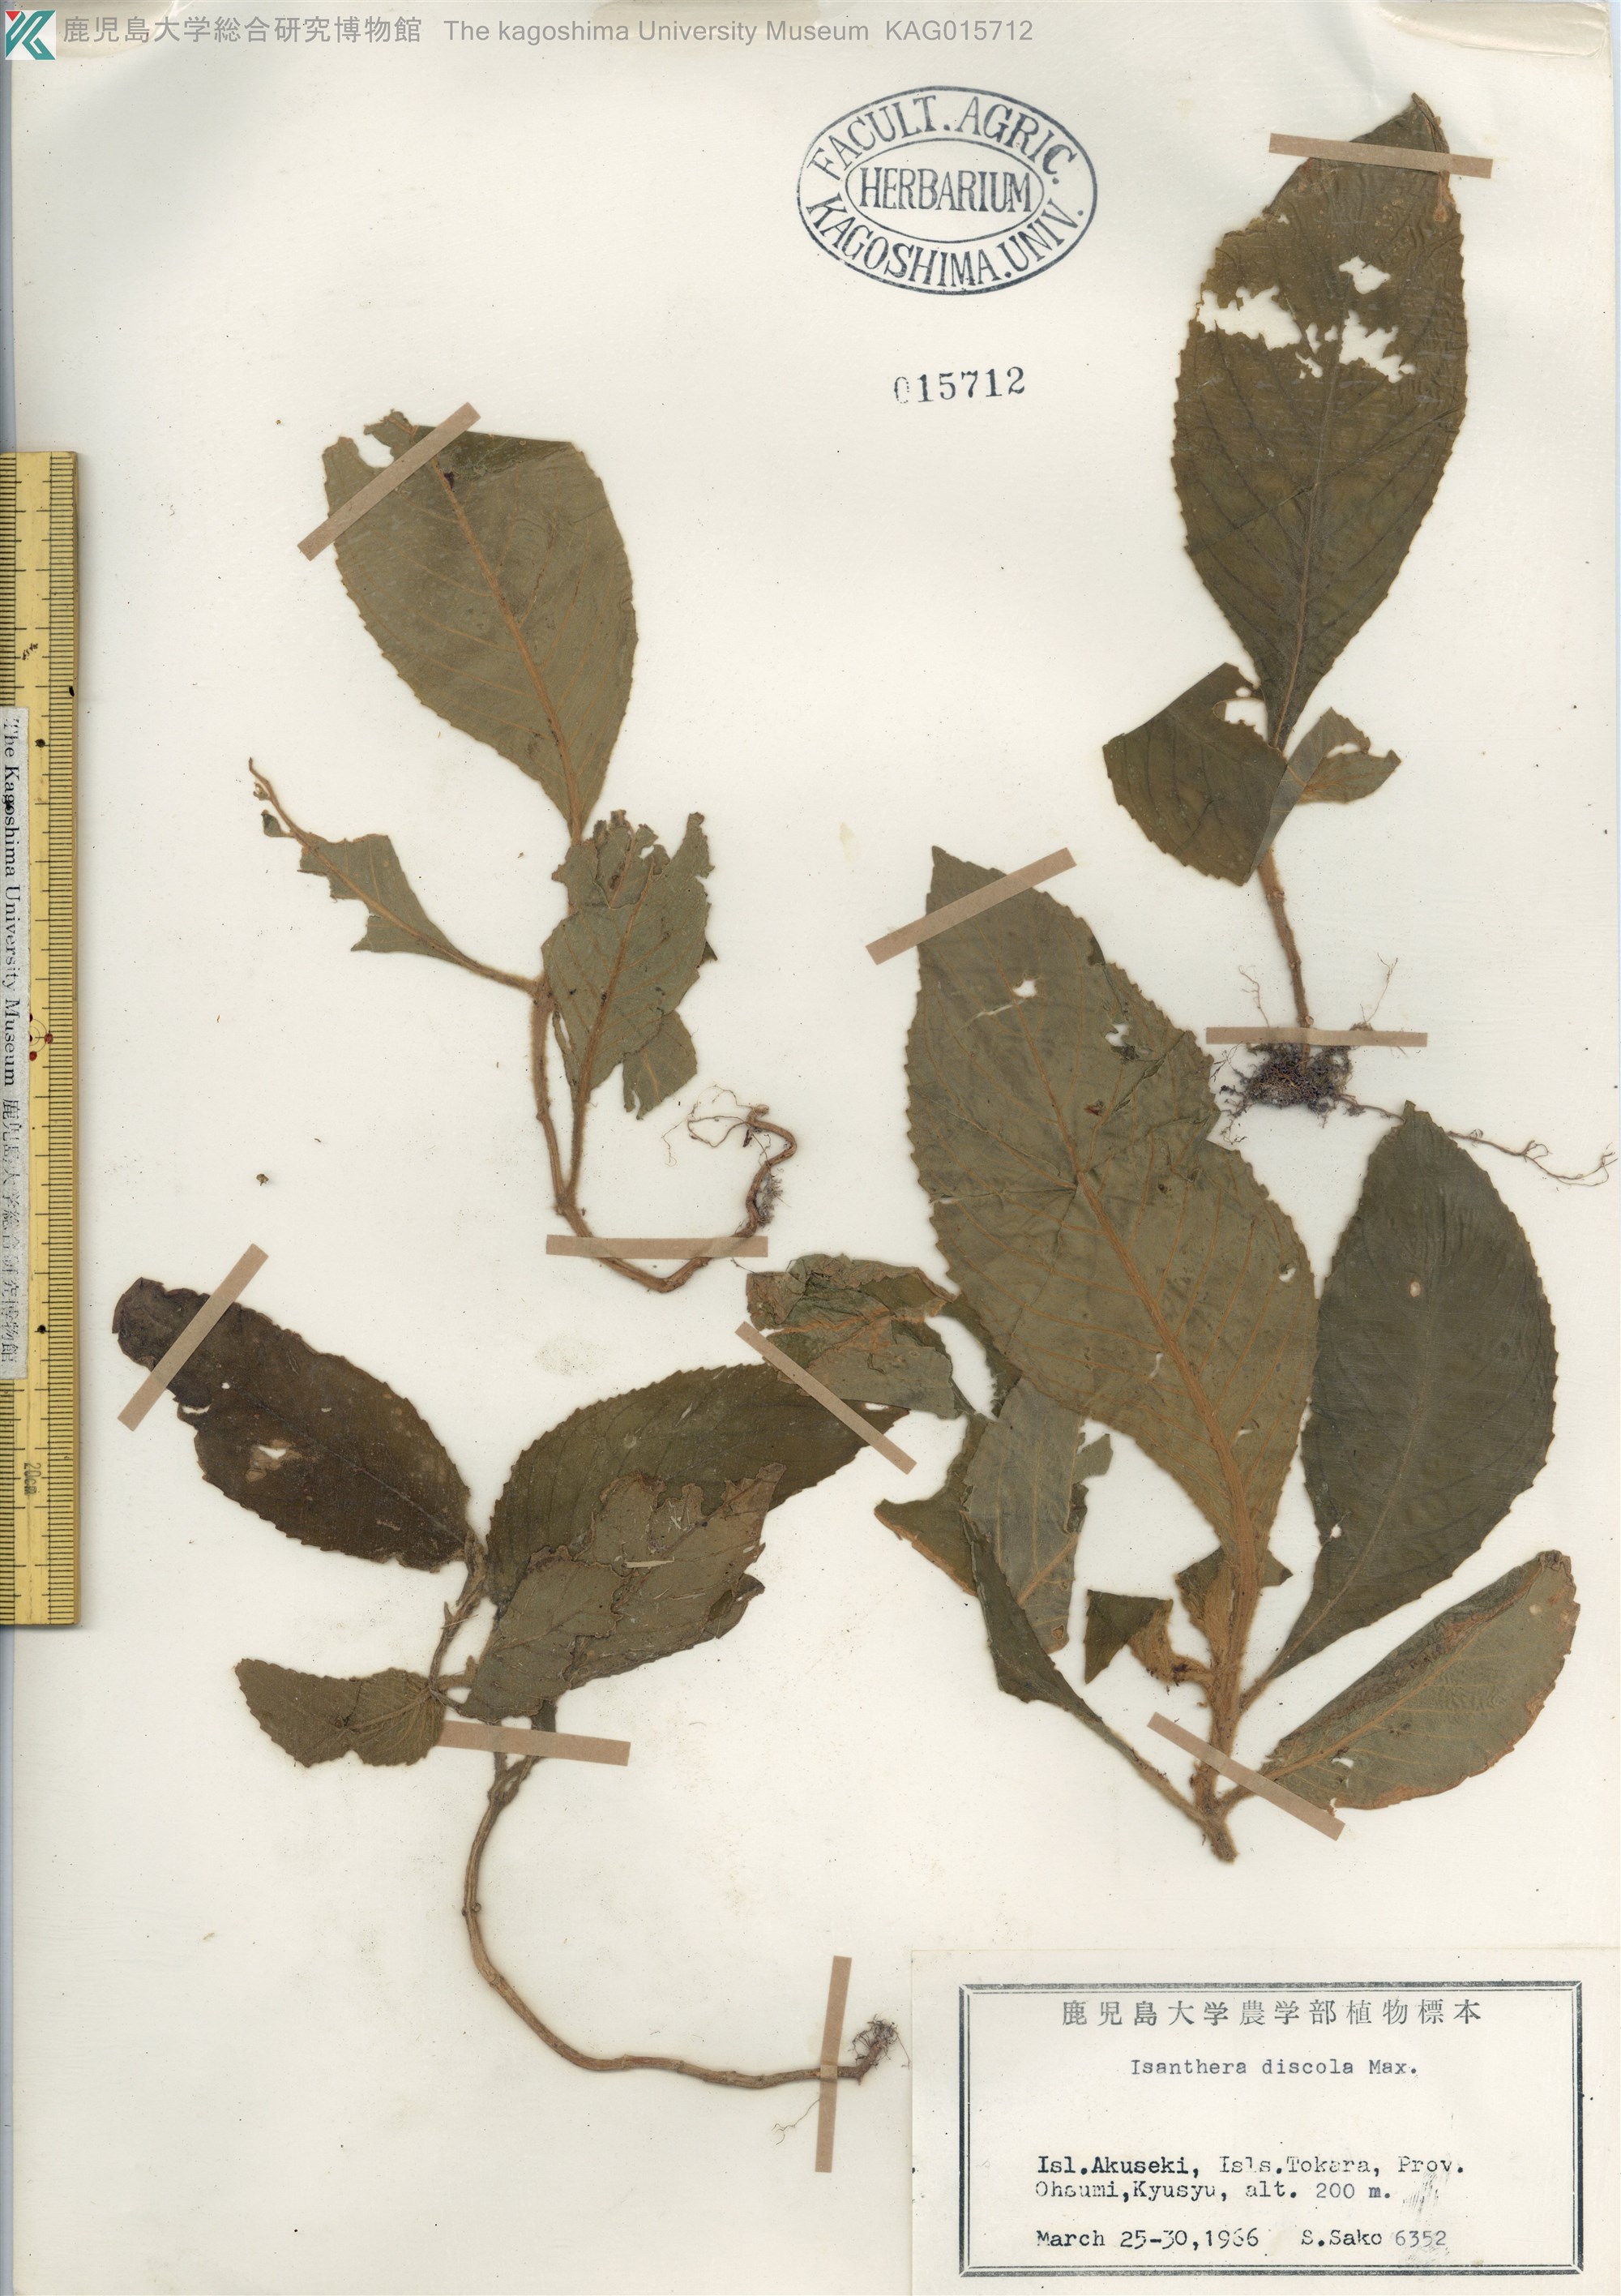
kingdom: Plantae
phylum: Tracheophyta
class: Magnoliopsida
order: Lamiales
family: Gesneriaceae
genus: Rhynchotechum
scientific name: Rhynchotechum discolor
